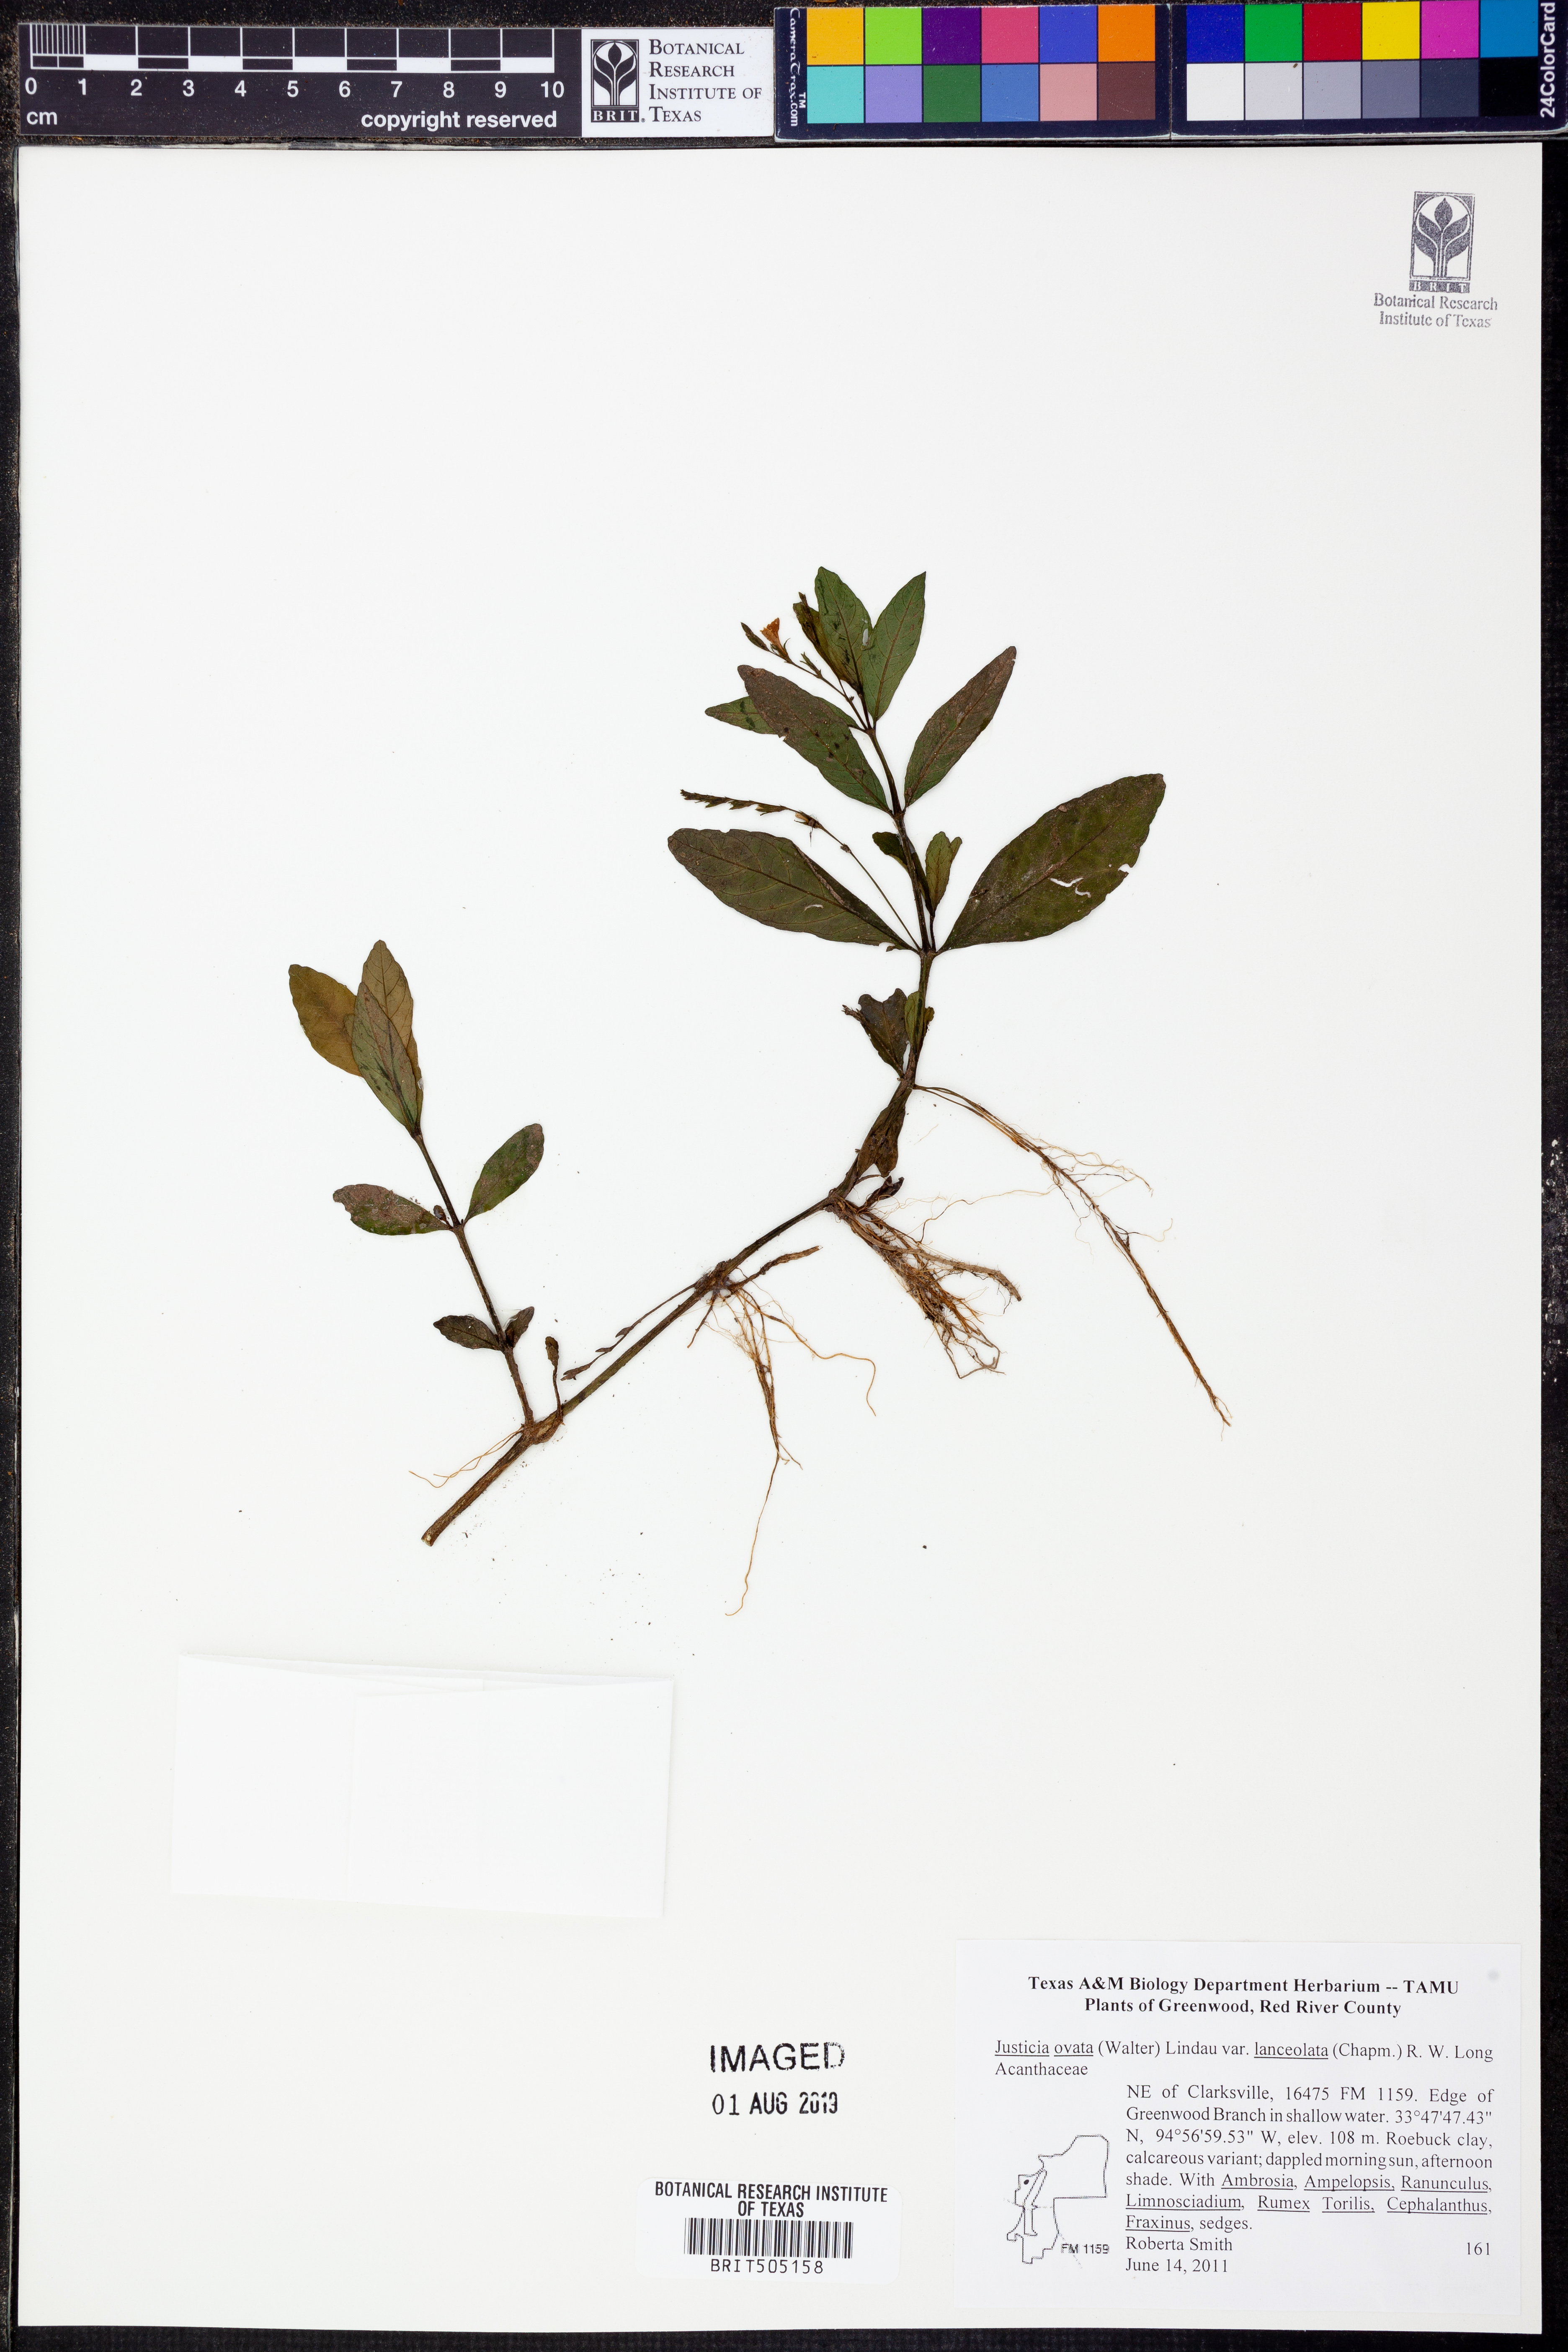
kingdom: Plantae
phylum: Tracheophyta
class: Magnoliopsida
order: Lamiales
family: Acanthaceae
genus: Justicia
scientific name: Justicia lanceolata
